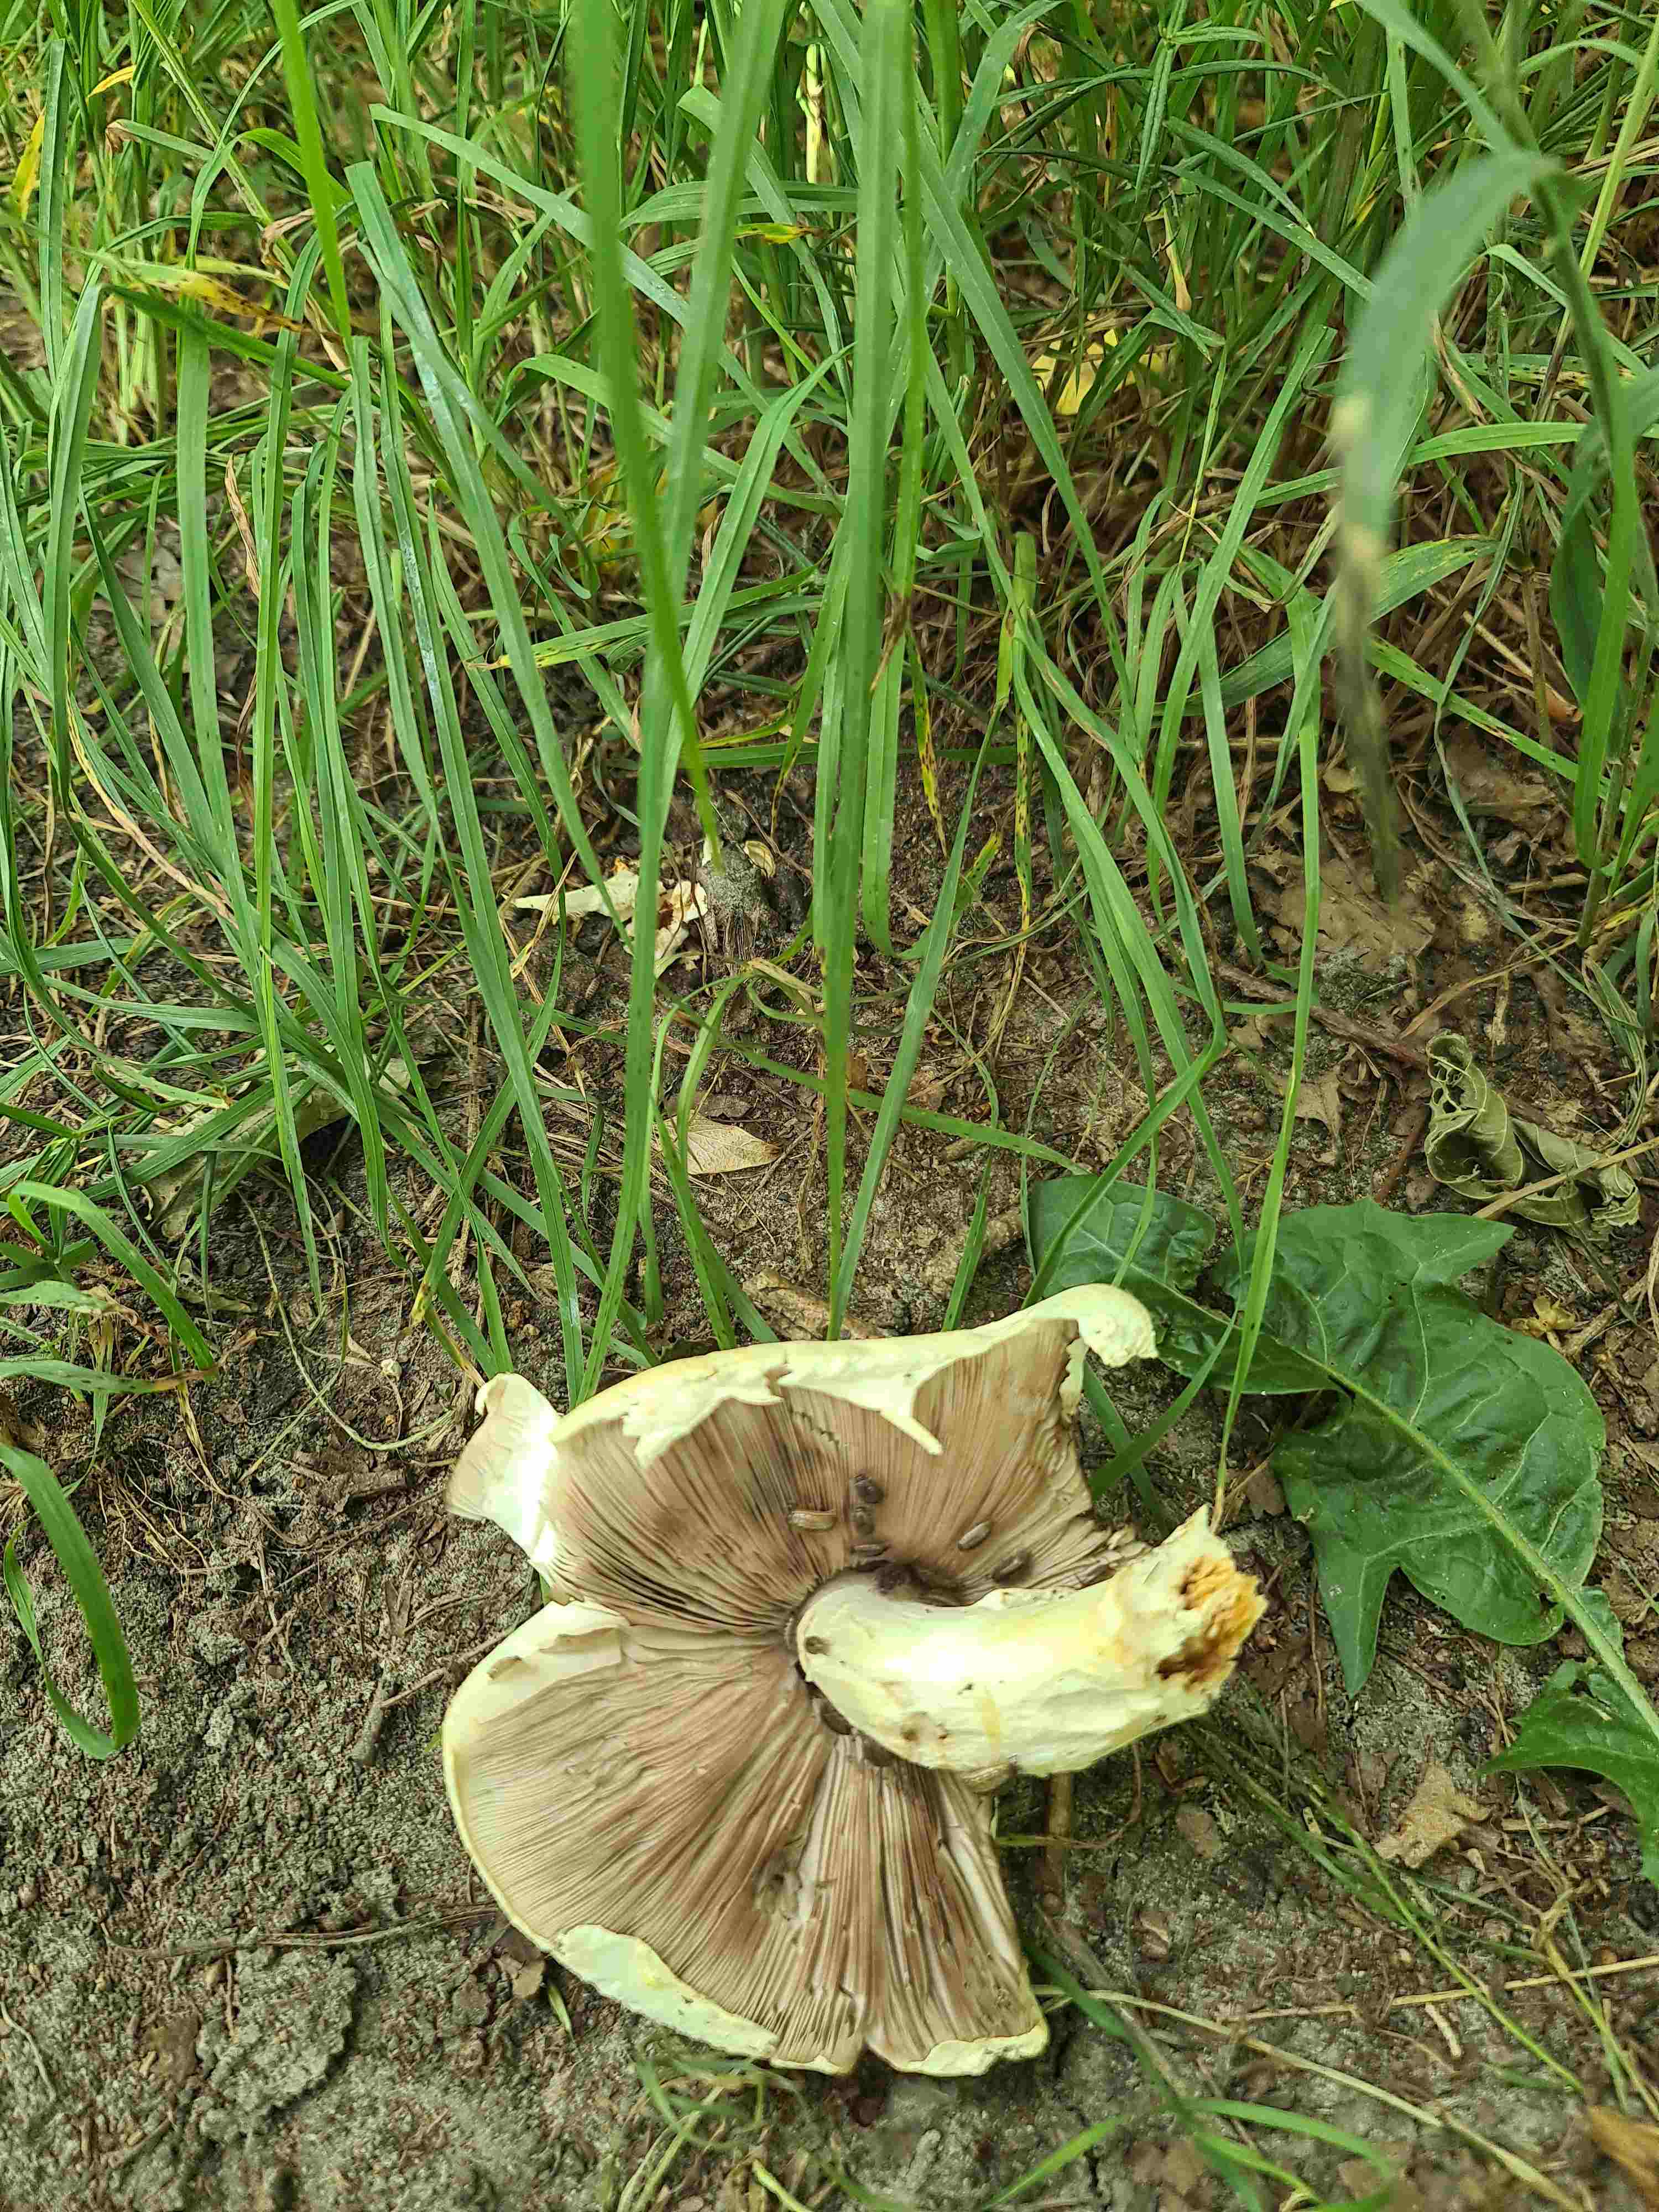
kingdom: Fungi
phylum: Basidiomycota
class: Agaricomycetes
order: Agaricales
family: Agaricaceae
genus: Agaricus
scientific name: Agaricus
